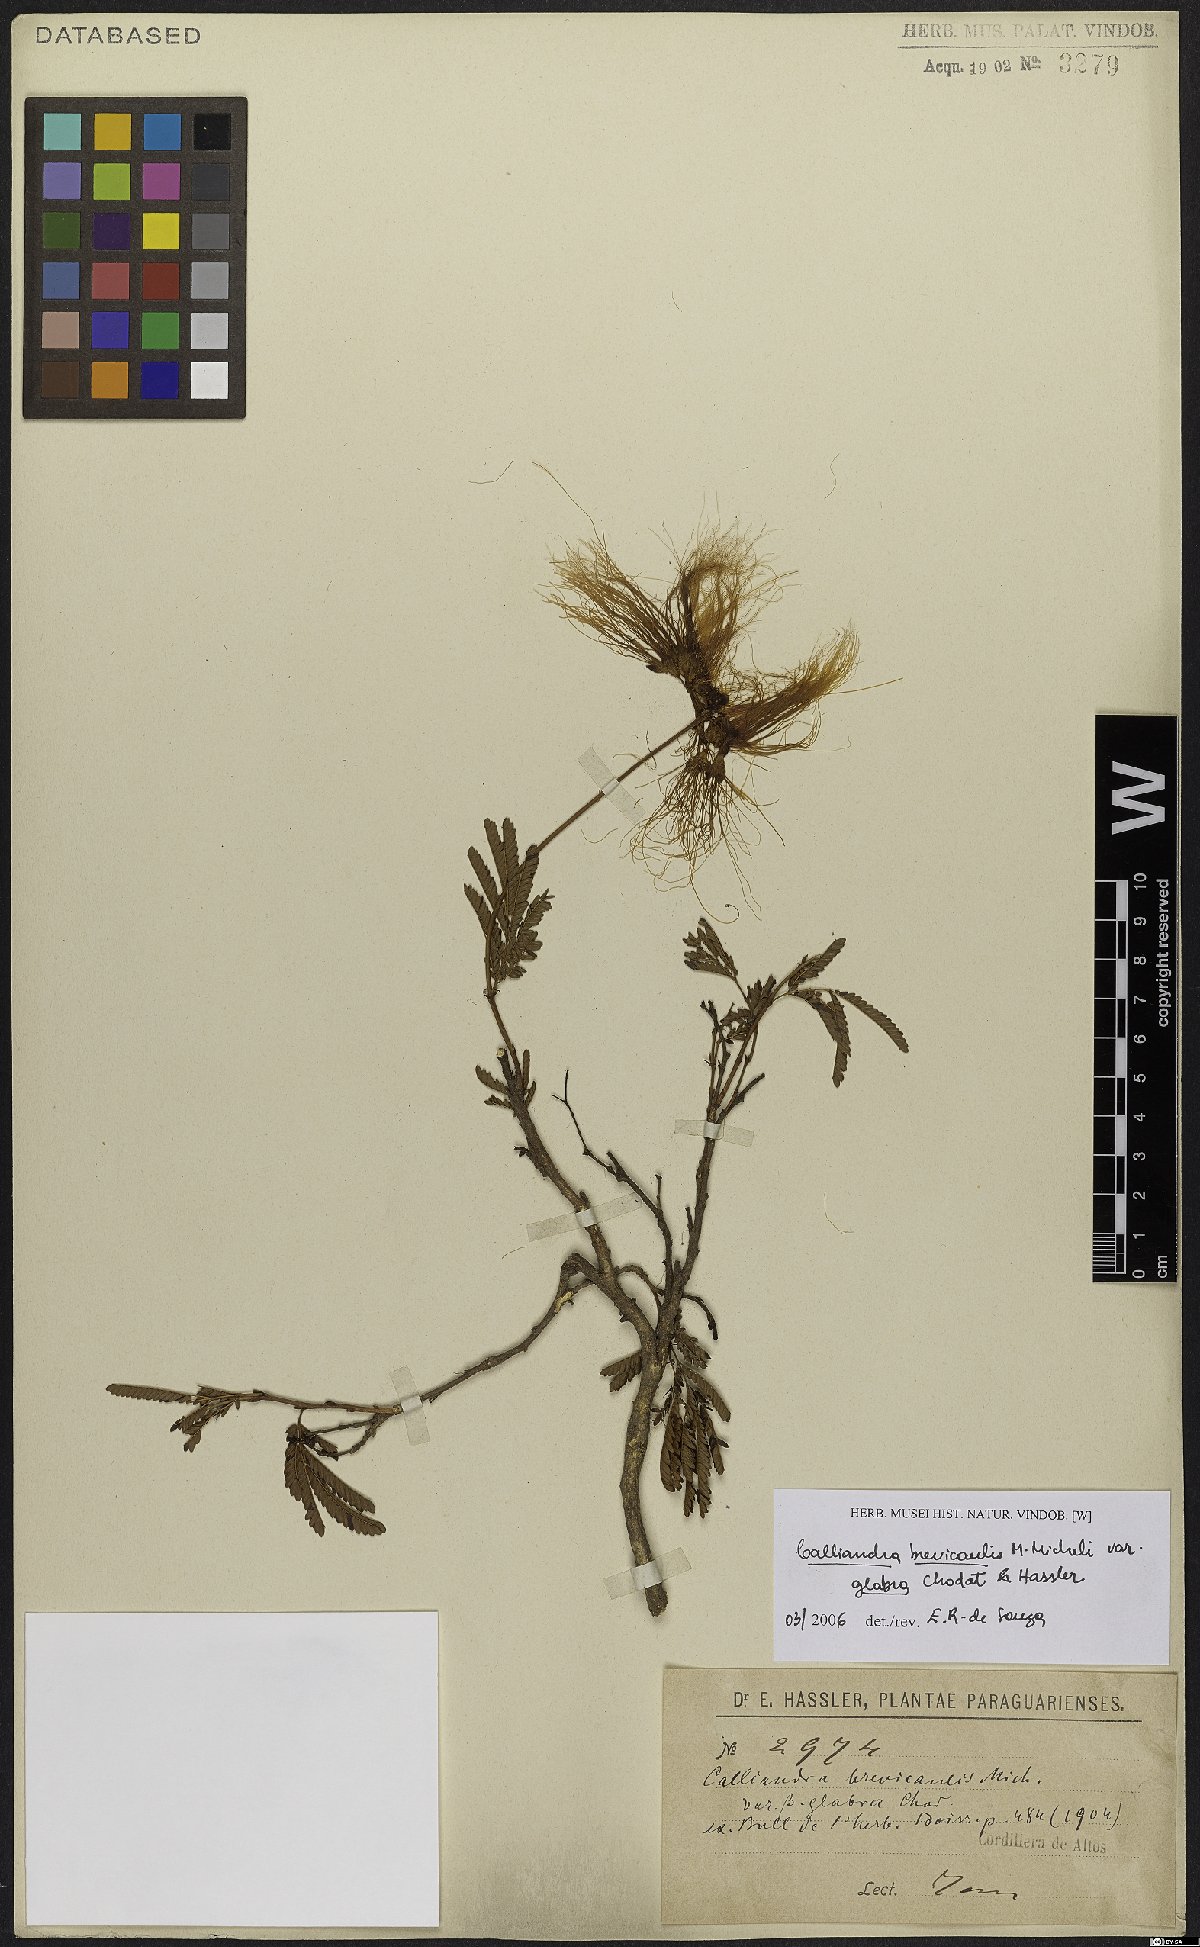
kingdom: Plantae
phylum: Tracheophyta
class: Magnoliopsida
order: Fabales
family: Fabaceae
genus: Calliandra
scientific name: Calliandra brevicaulis
